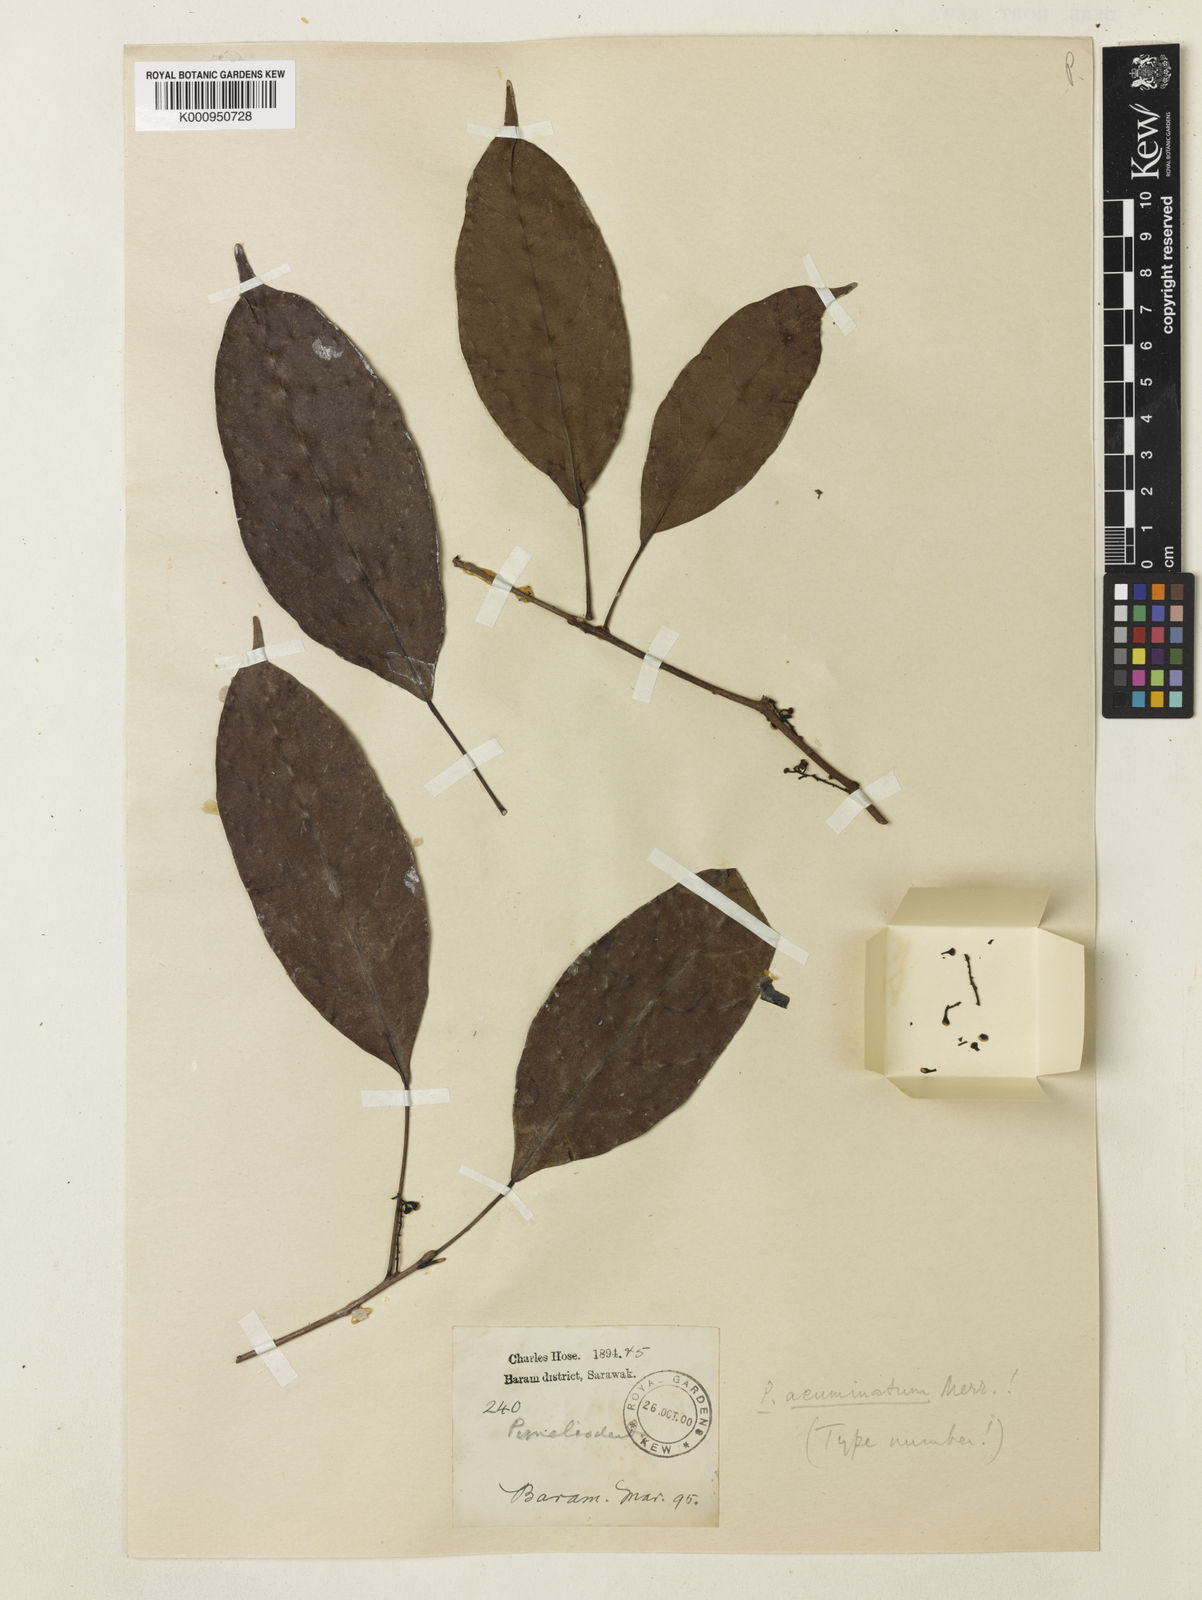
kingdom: Plantae
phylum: Tracheophyta
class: Magnoliopsida
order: Malpighiales
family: Euphorbiaceae
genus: Pimelodendron
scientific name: Pimelodendron
